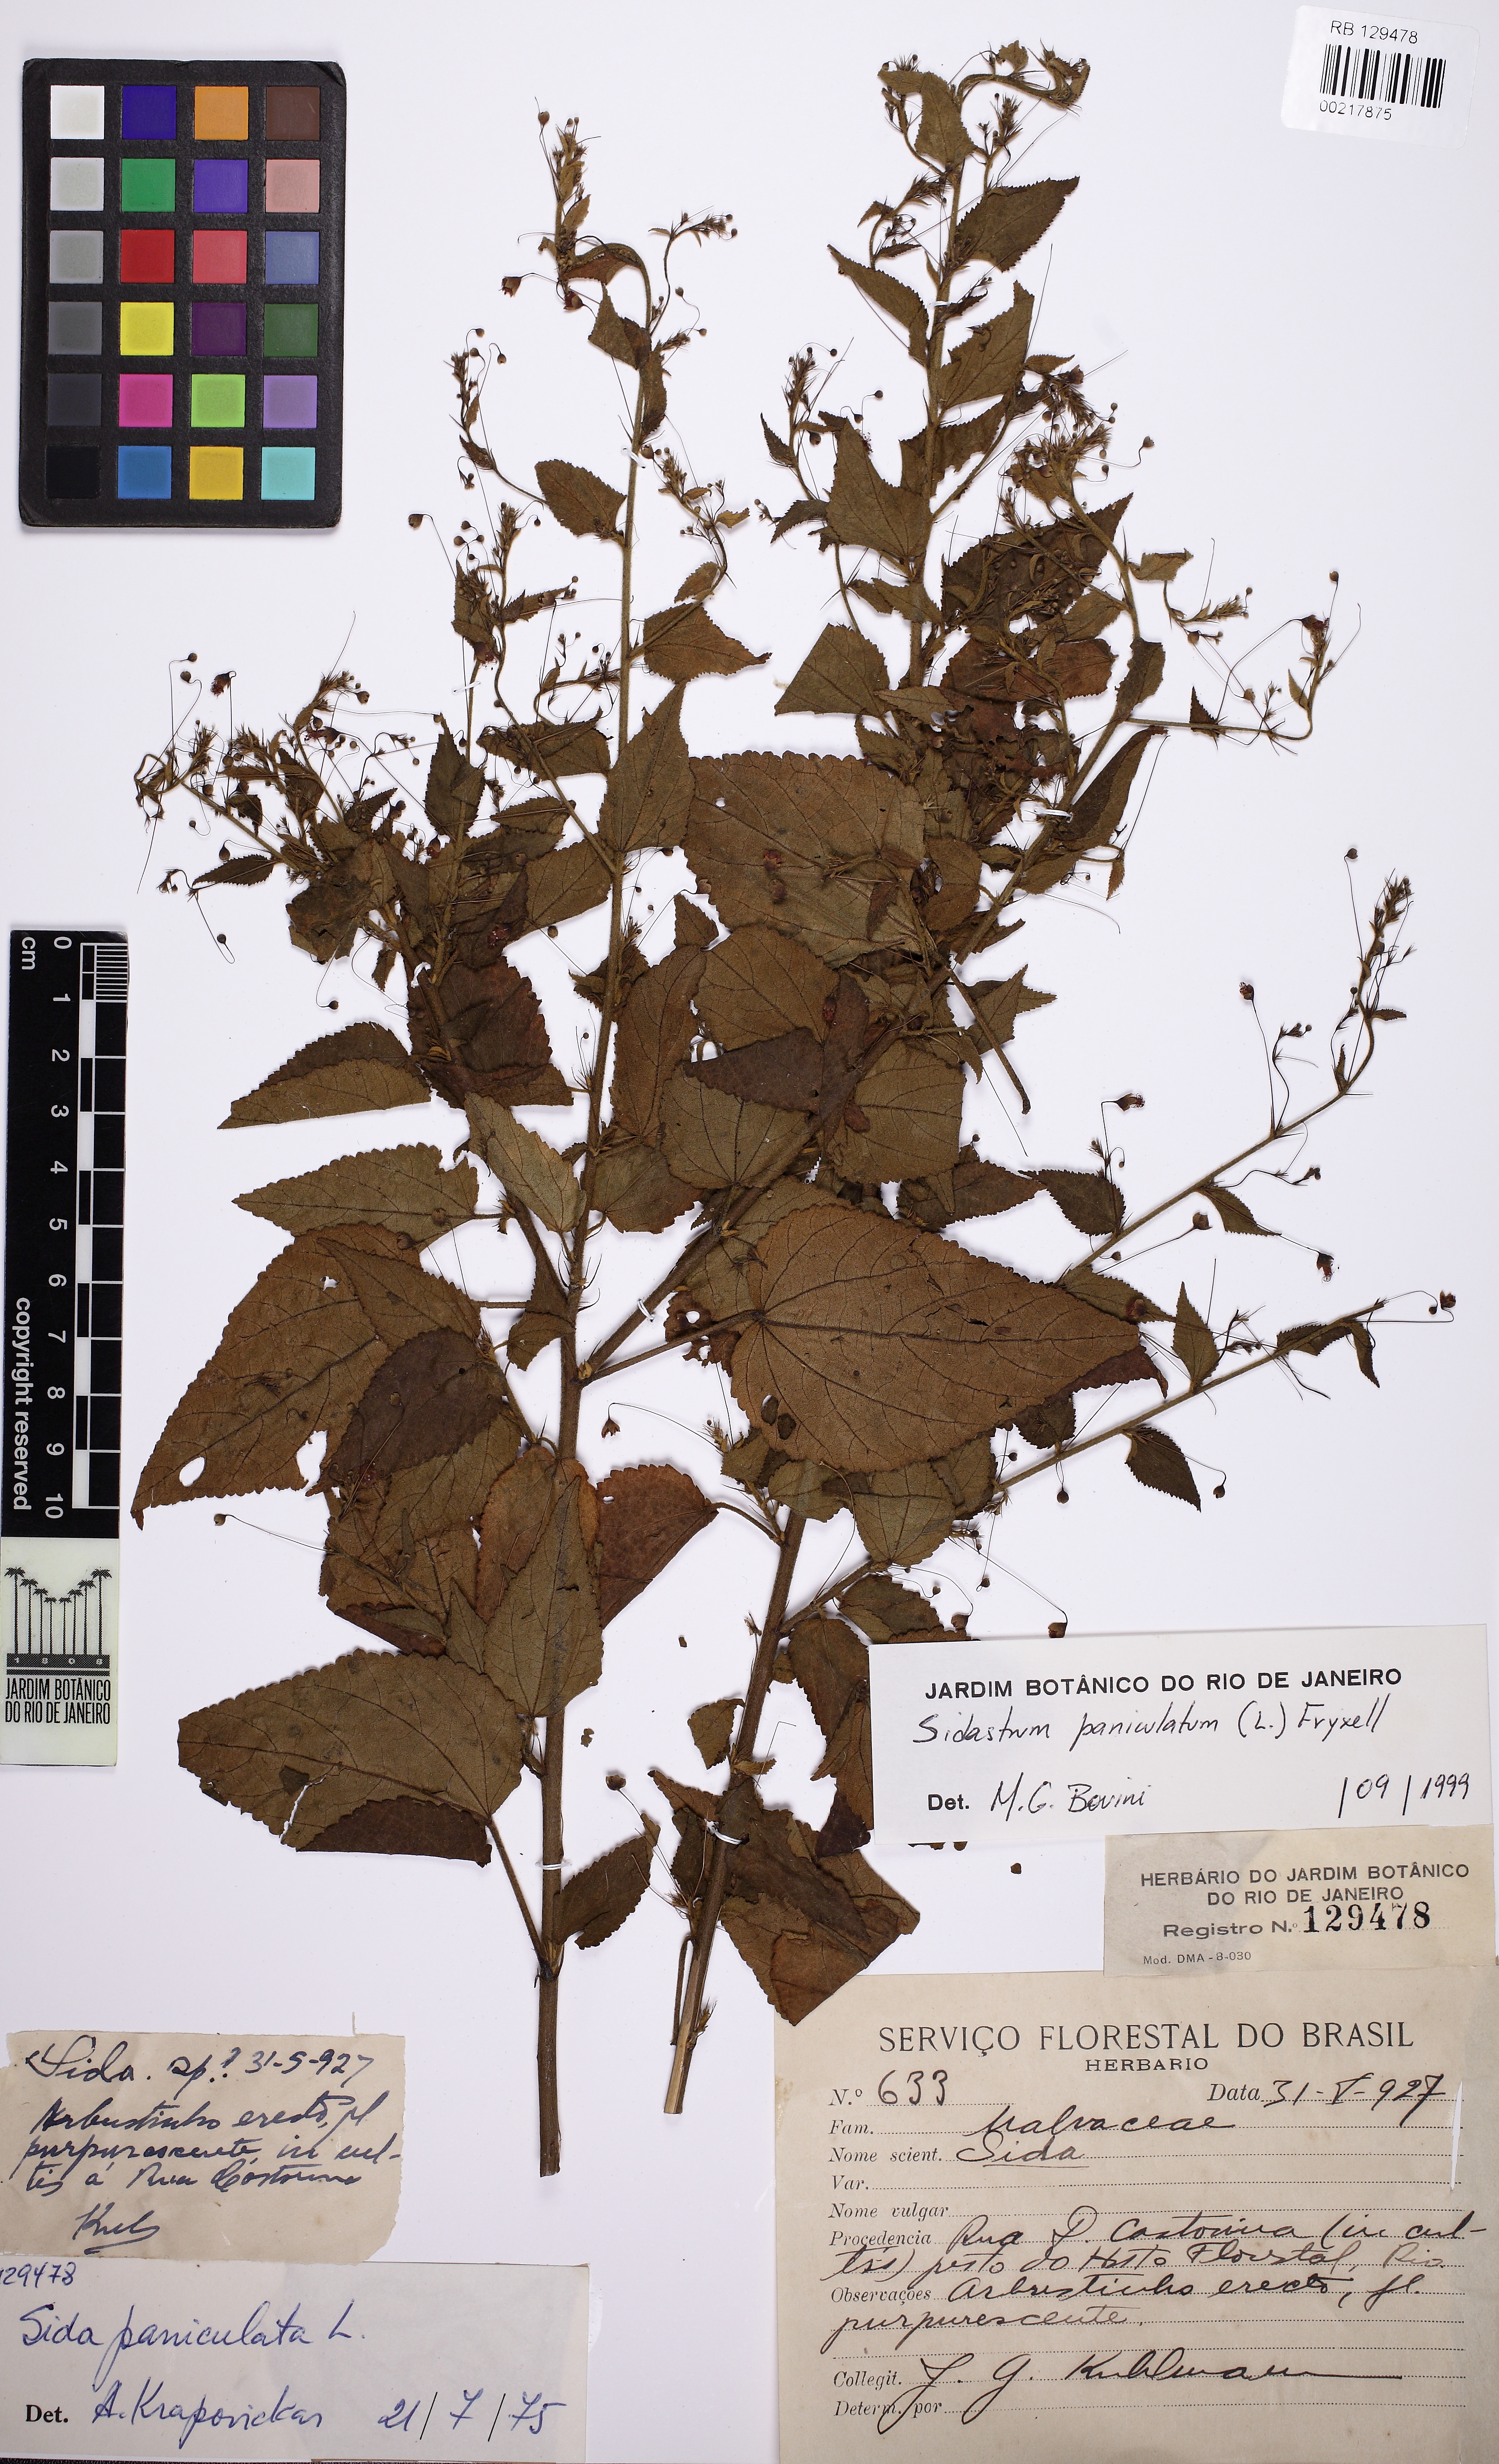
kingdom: Plantae
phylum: Tracheophyta
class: Magnoliopsida
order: Malvales
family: Malvaceae
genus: Sidastrum
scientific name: Sidastrum paniculatum
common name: Panicled sandmallow
